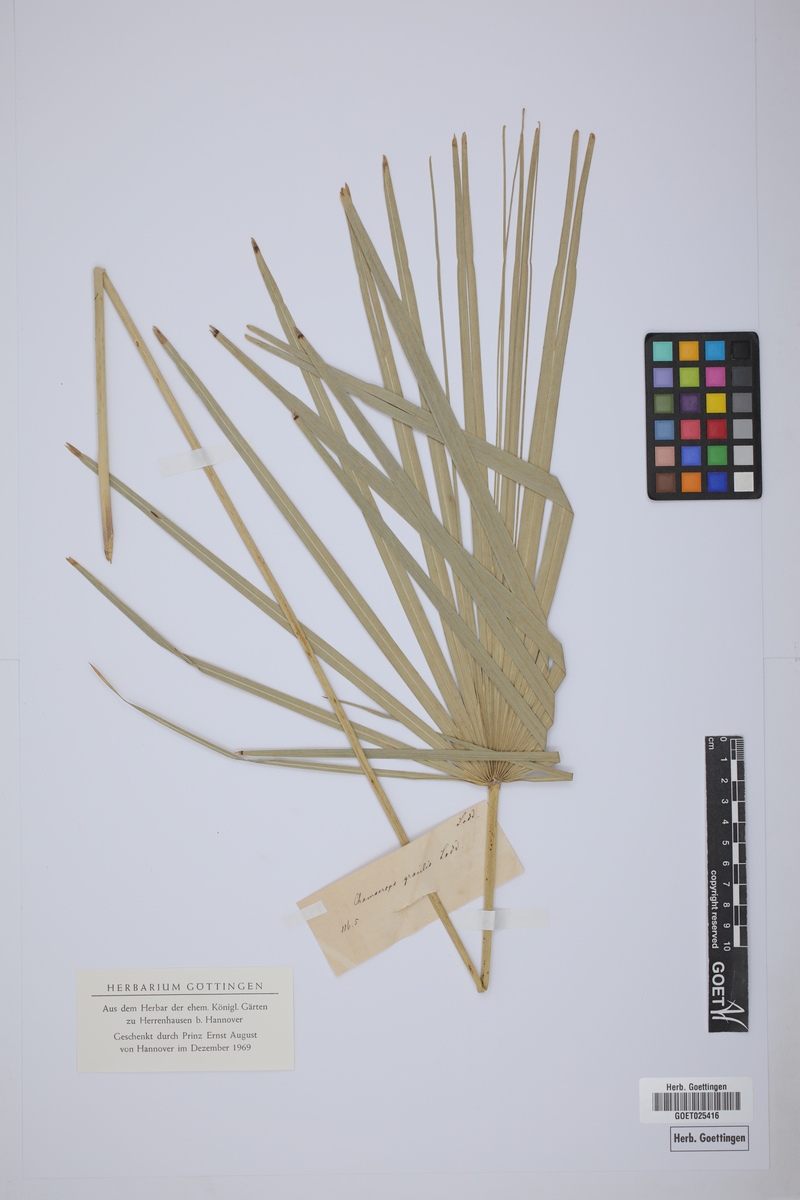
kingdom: Plantae
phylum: Tracheophyta
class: Liliopsida
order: Arecales
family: Arecaceae
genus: Chamaerops
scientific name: Chamaerops gracilis
